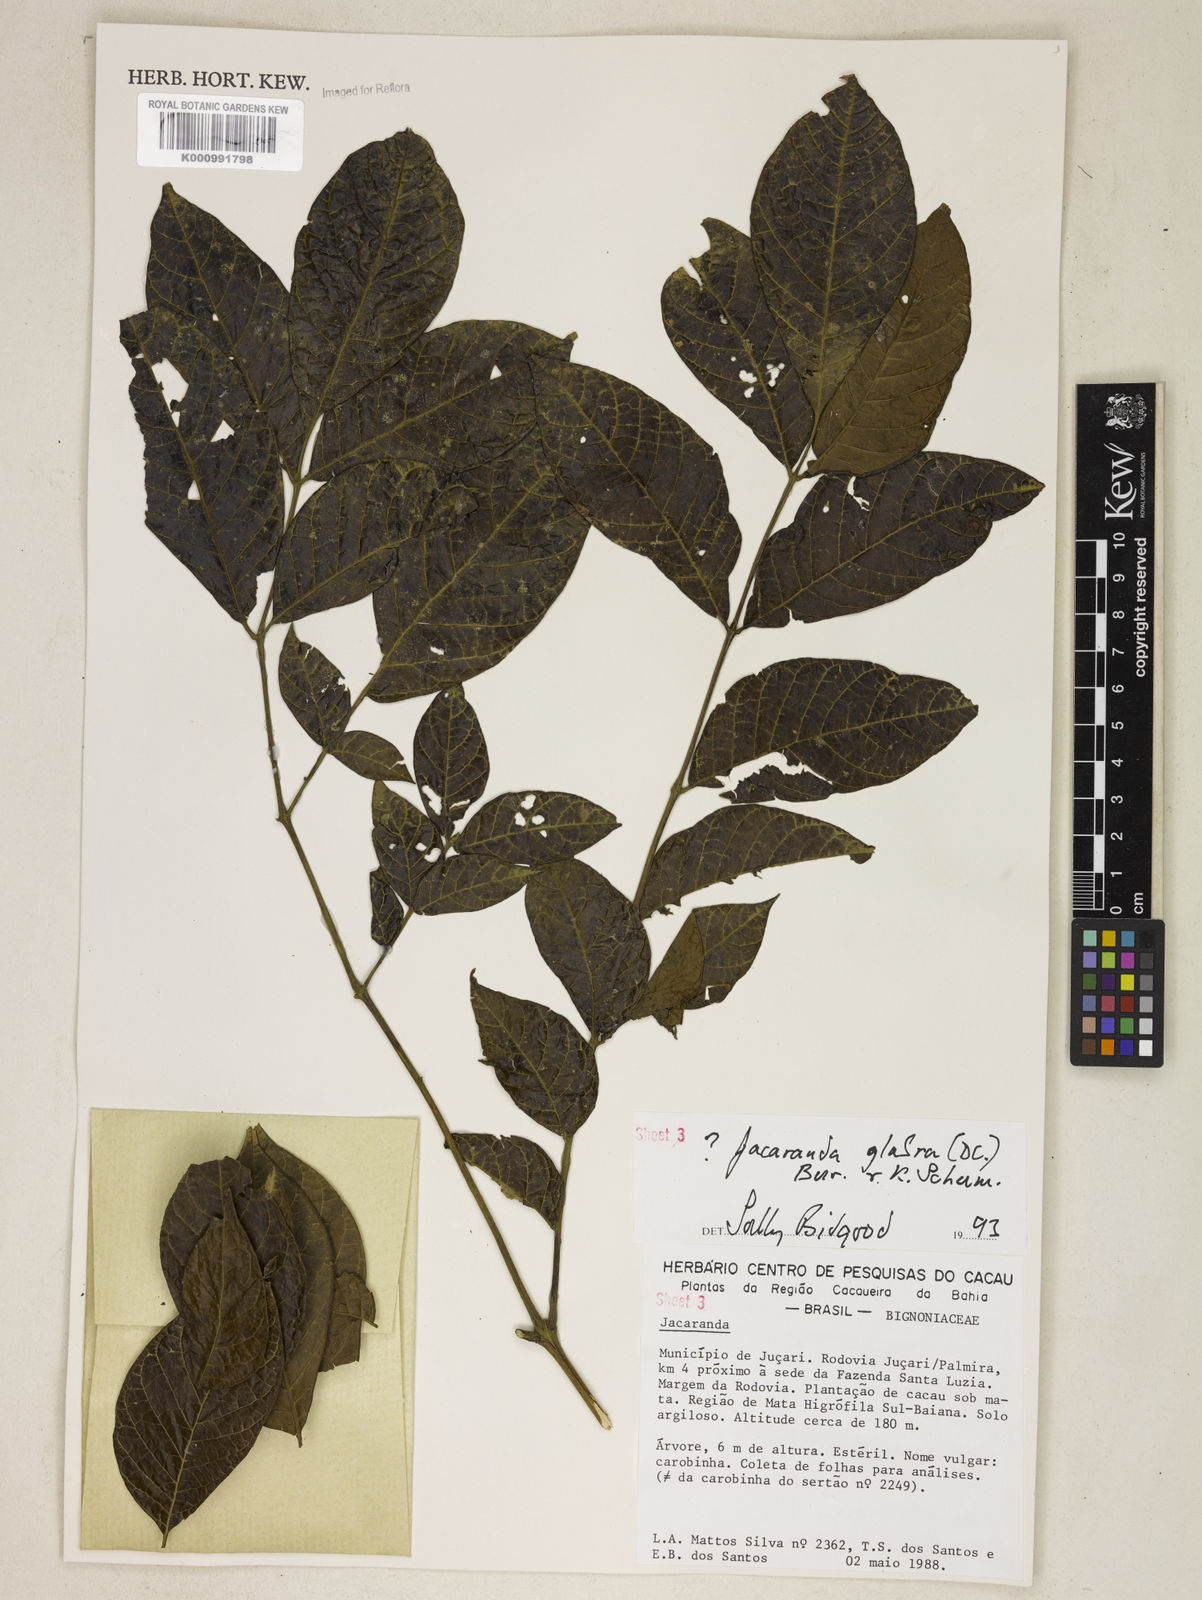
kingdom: Plantae
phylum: Tracheophyta
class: Magnoliopsida
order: Lamiales
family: Bignoniaceae
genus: Jacaranda
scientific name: Jacaranda glabra
